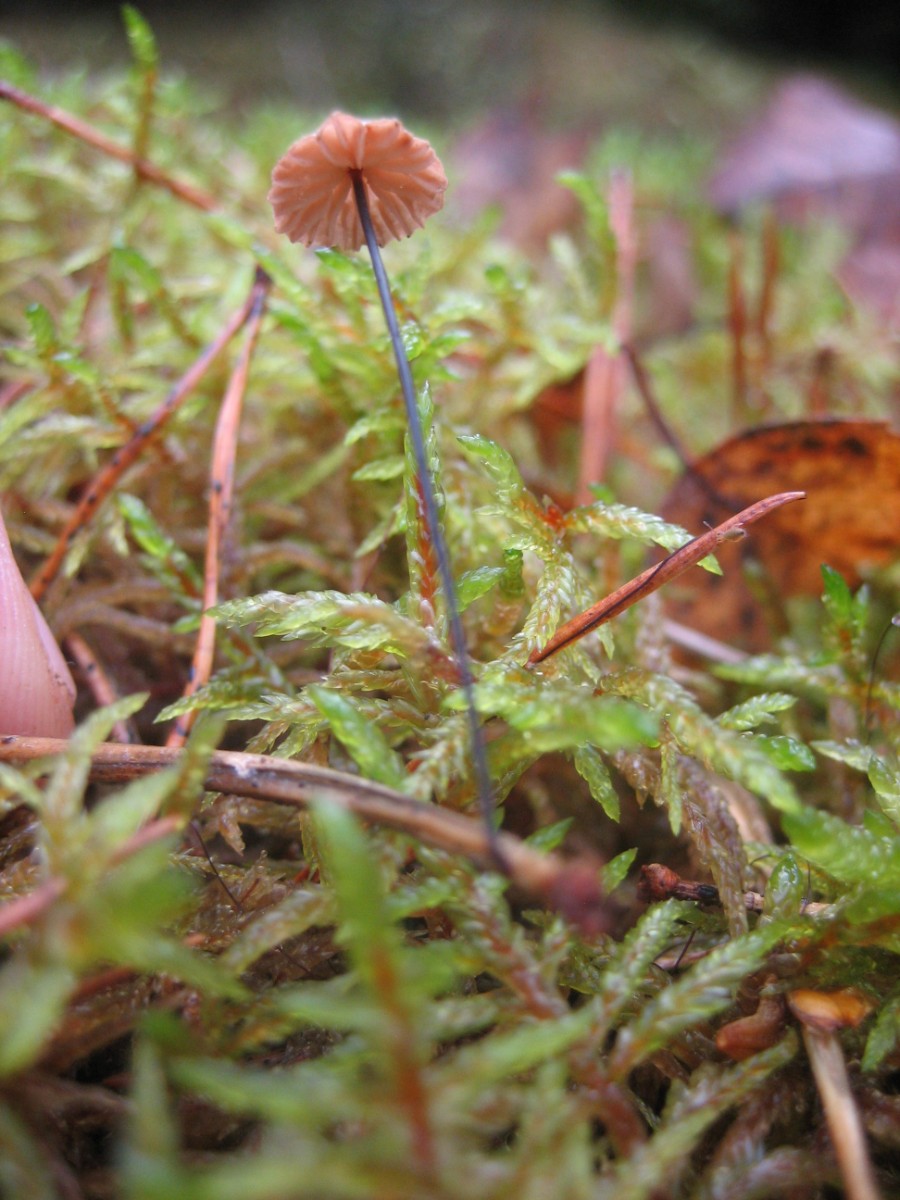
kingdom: Fungi
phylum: Basidiomycota
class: Agaricomycetes
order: Agaricales
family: Omphalotaceae
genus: Paragymnopus
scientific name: Paragymnopus perforans
